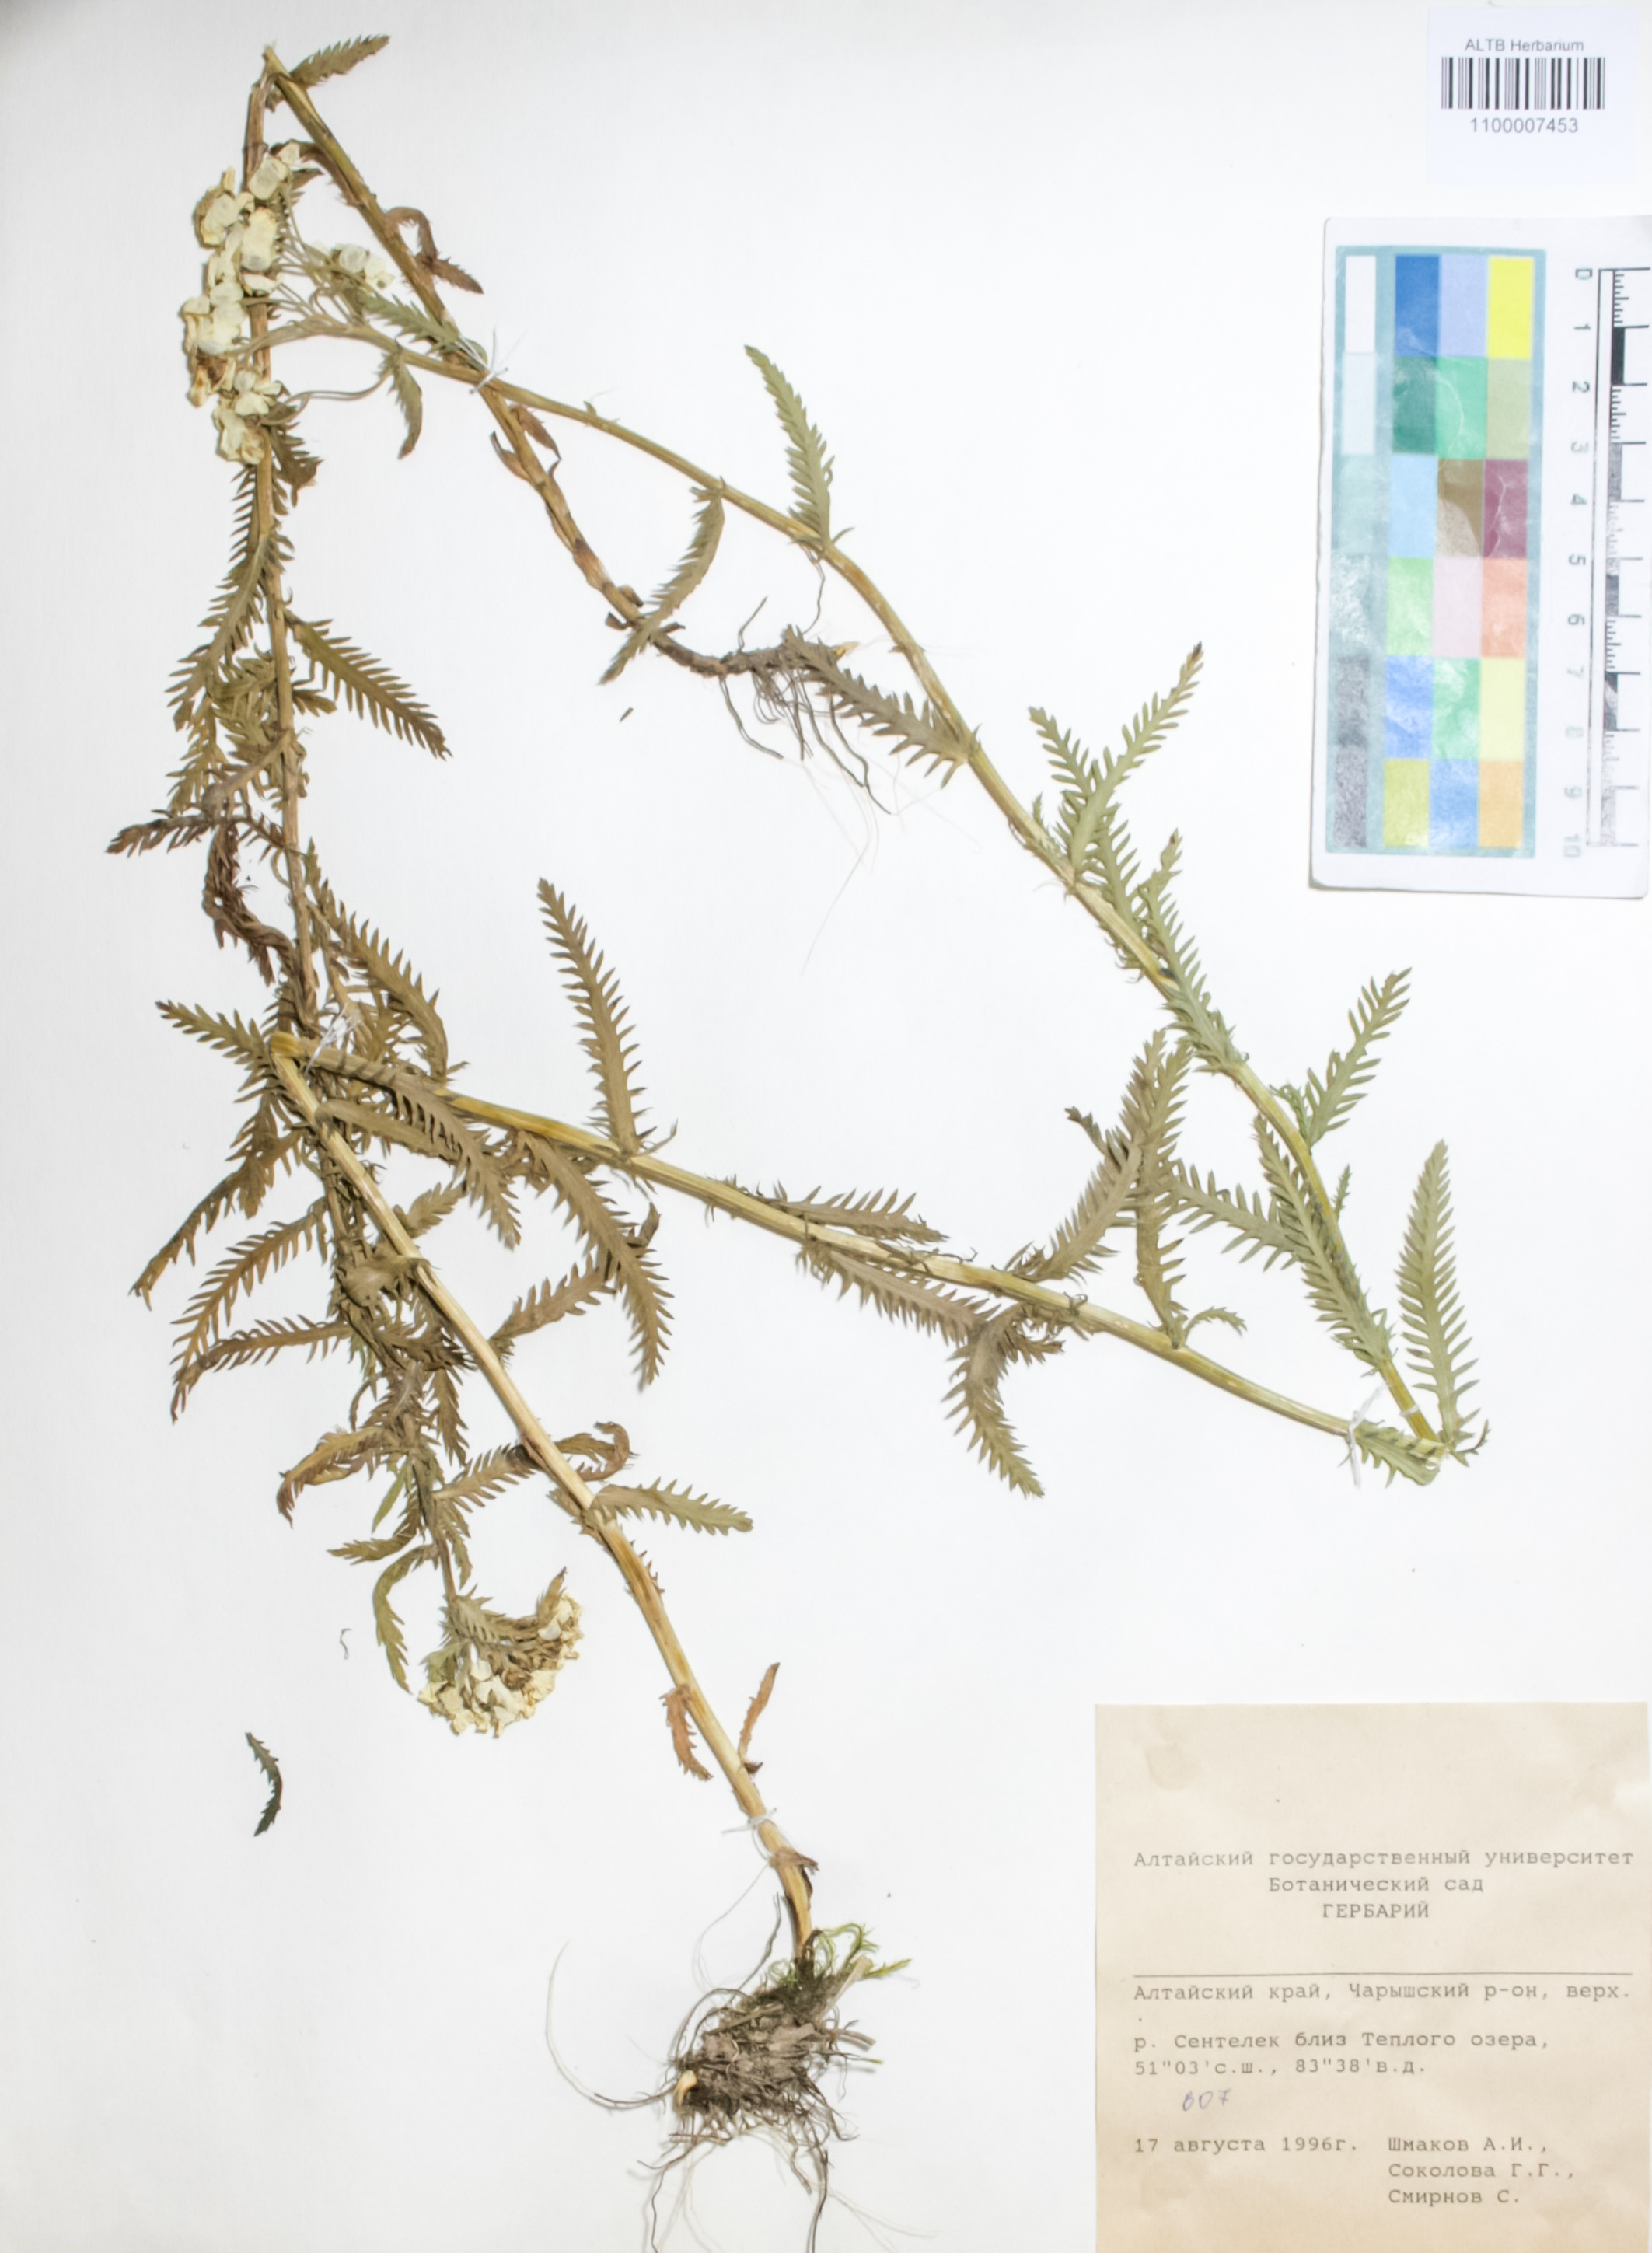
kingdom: Plantae
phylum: Tracheophyta
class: Magnoliopsida
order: Boraginales
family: Boraginaceae
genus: Rindera
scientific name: Rindera tetraspis
